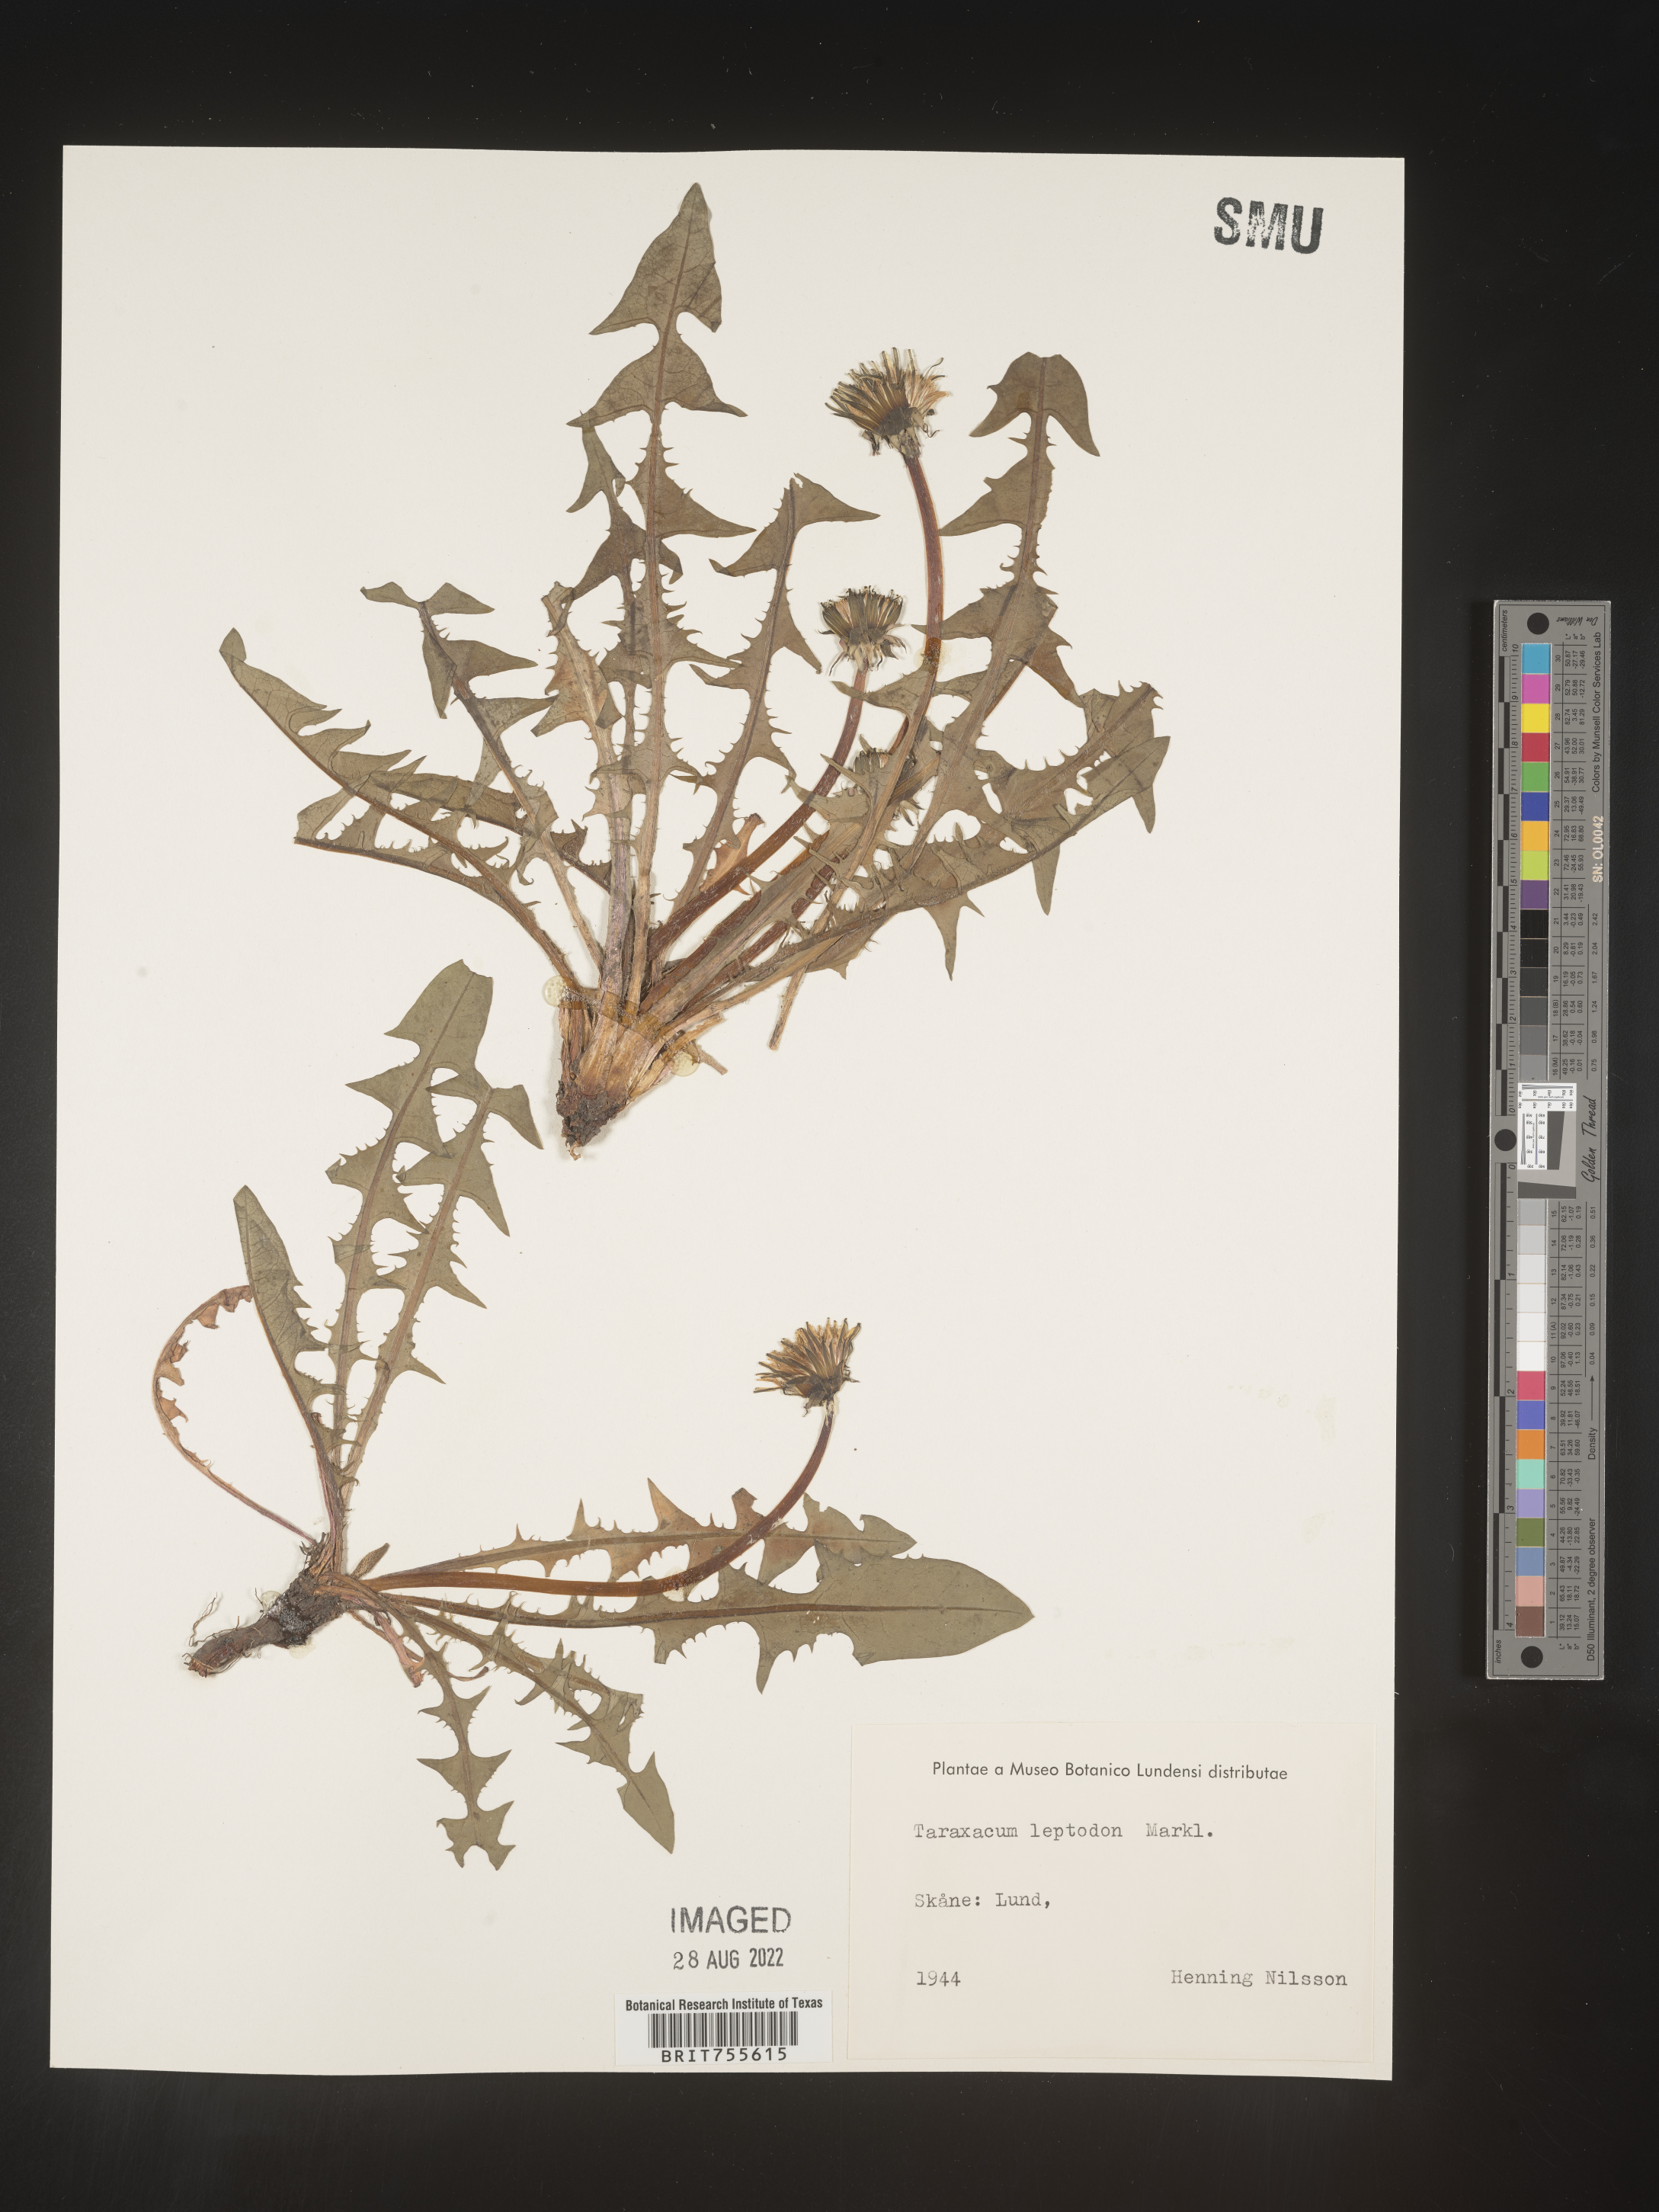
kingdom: Plantae
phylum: Tracheophyta
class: Magnoliopsida
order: Asterales
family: Asteraceae
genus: Taraxacum
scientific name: Taraxacum
